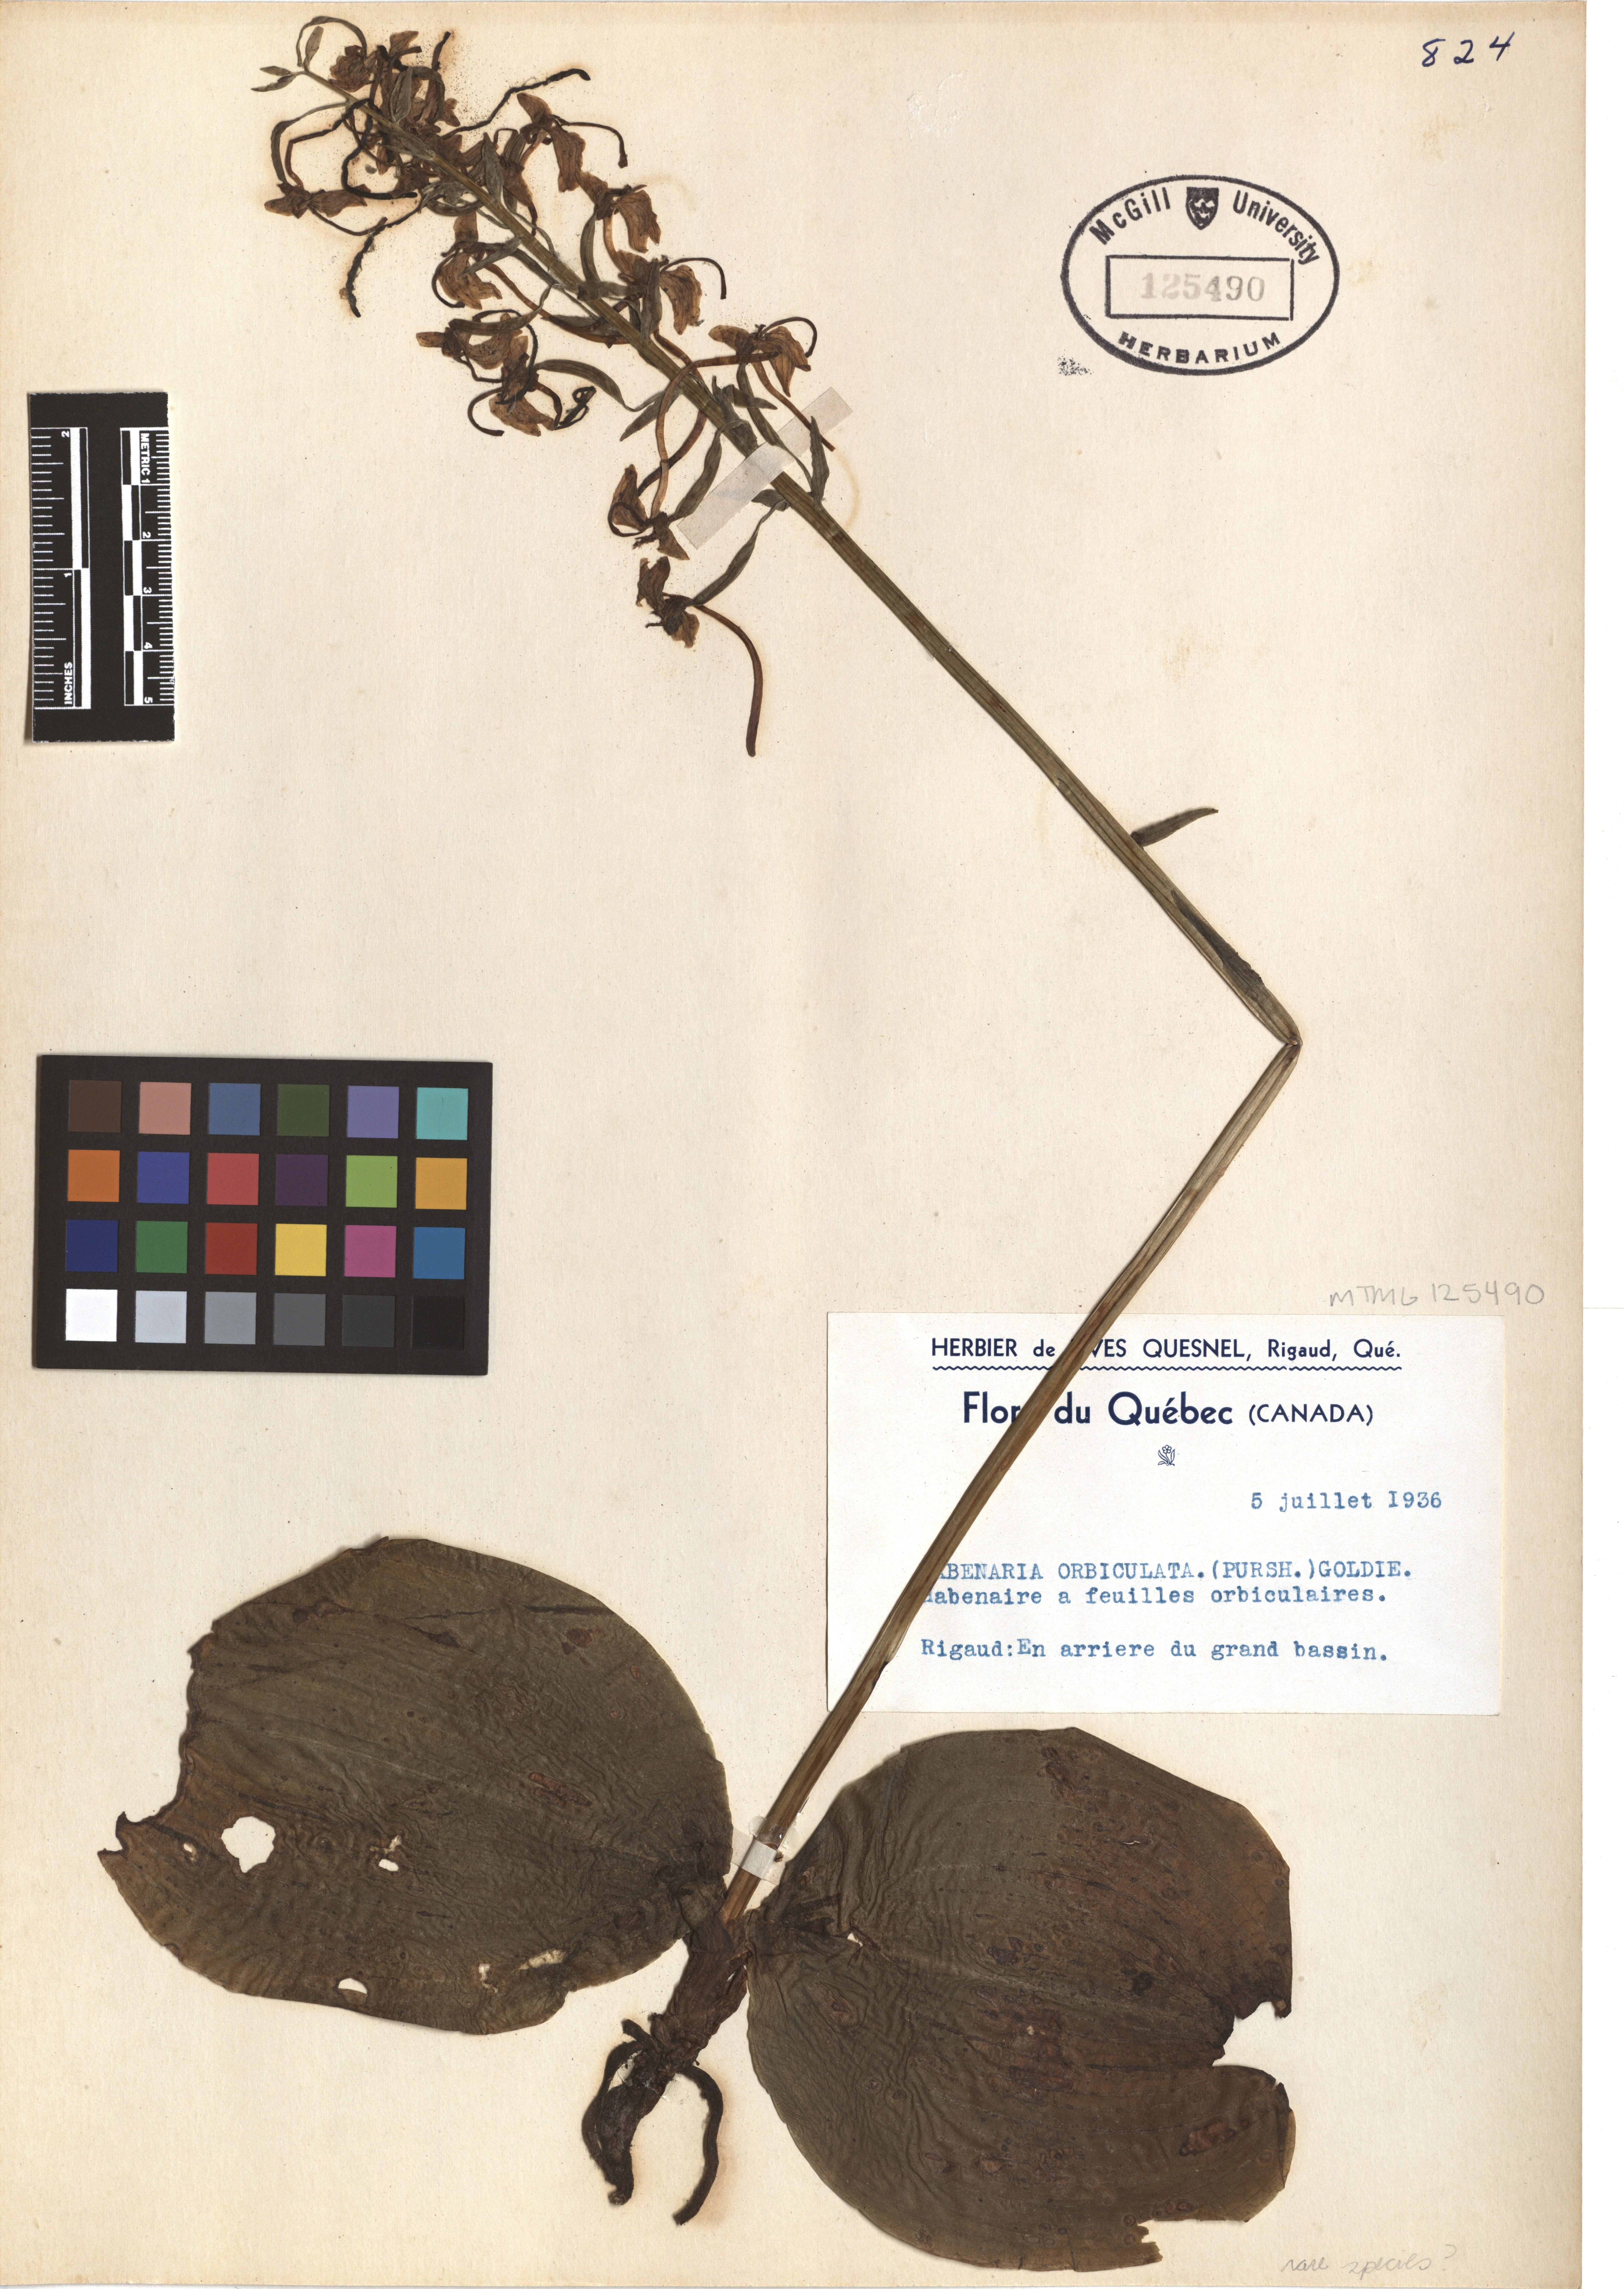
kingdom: Plantae
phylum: Tracheophyta
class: Liliopsida
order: Asparagales
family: Orchidaceae
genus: Platanthera
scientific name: Platanthera orbiculata
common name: Large round-leaved orchid
